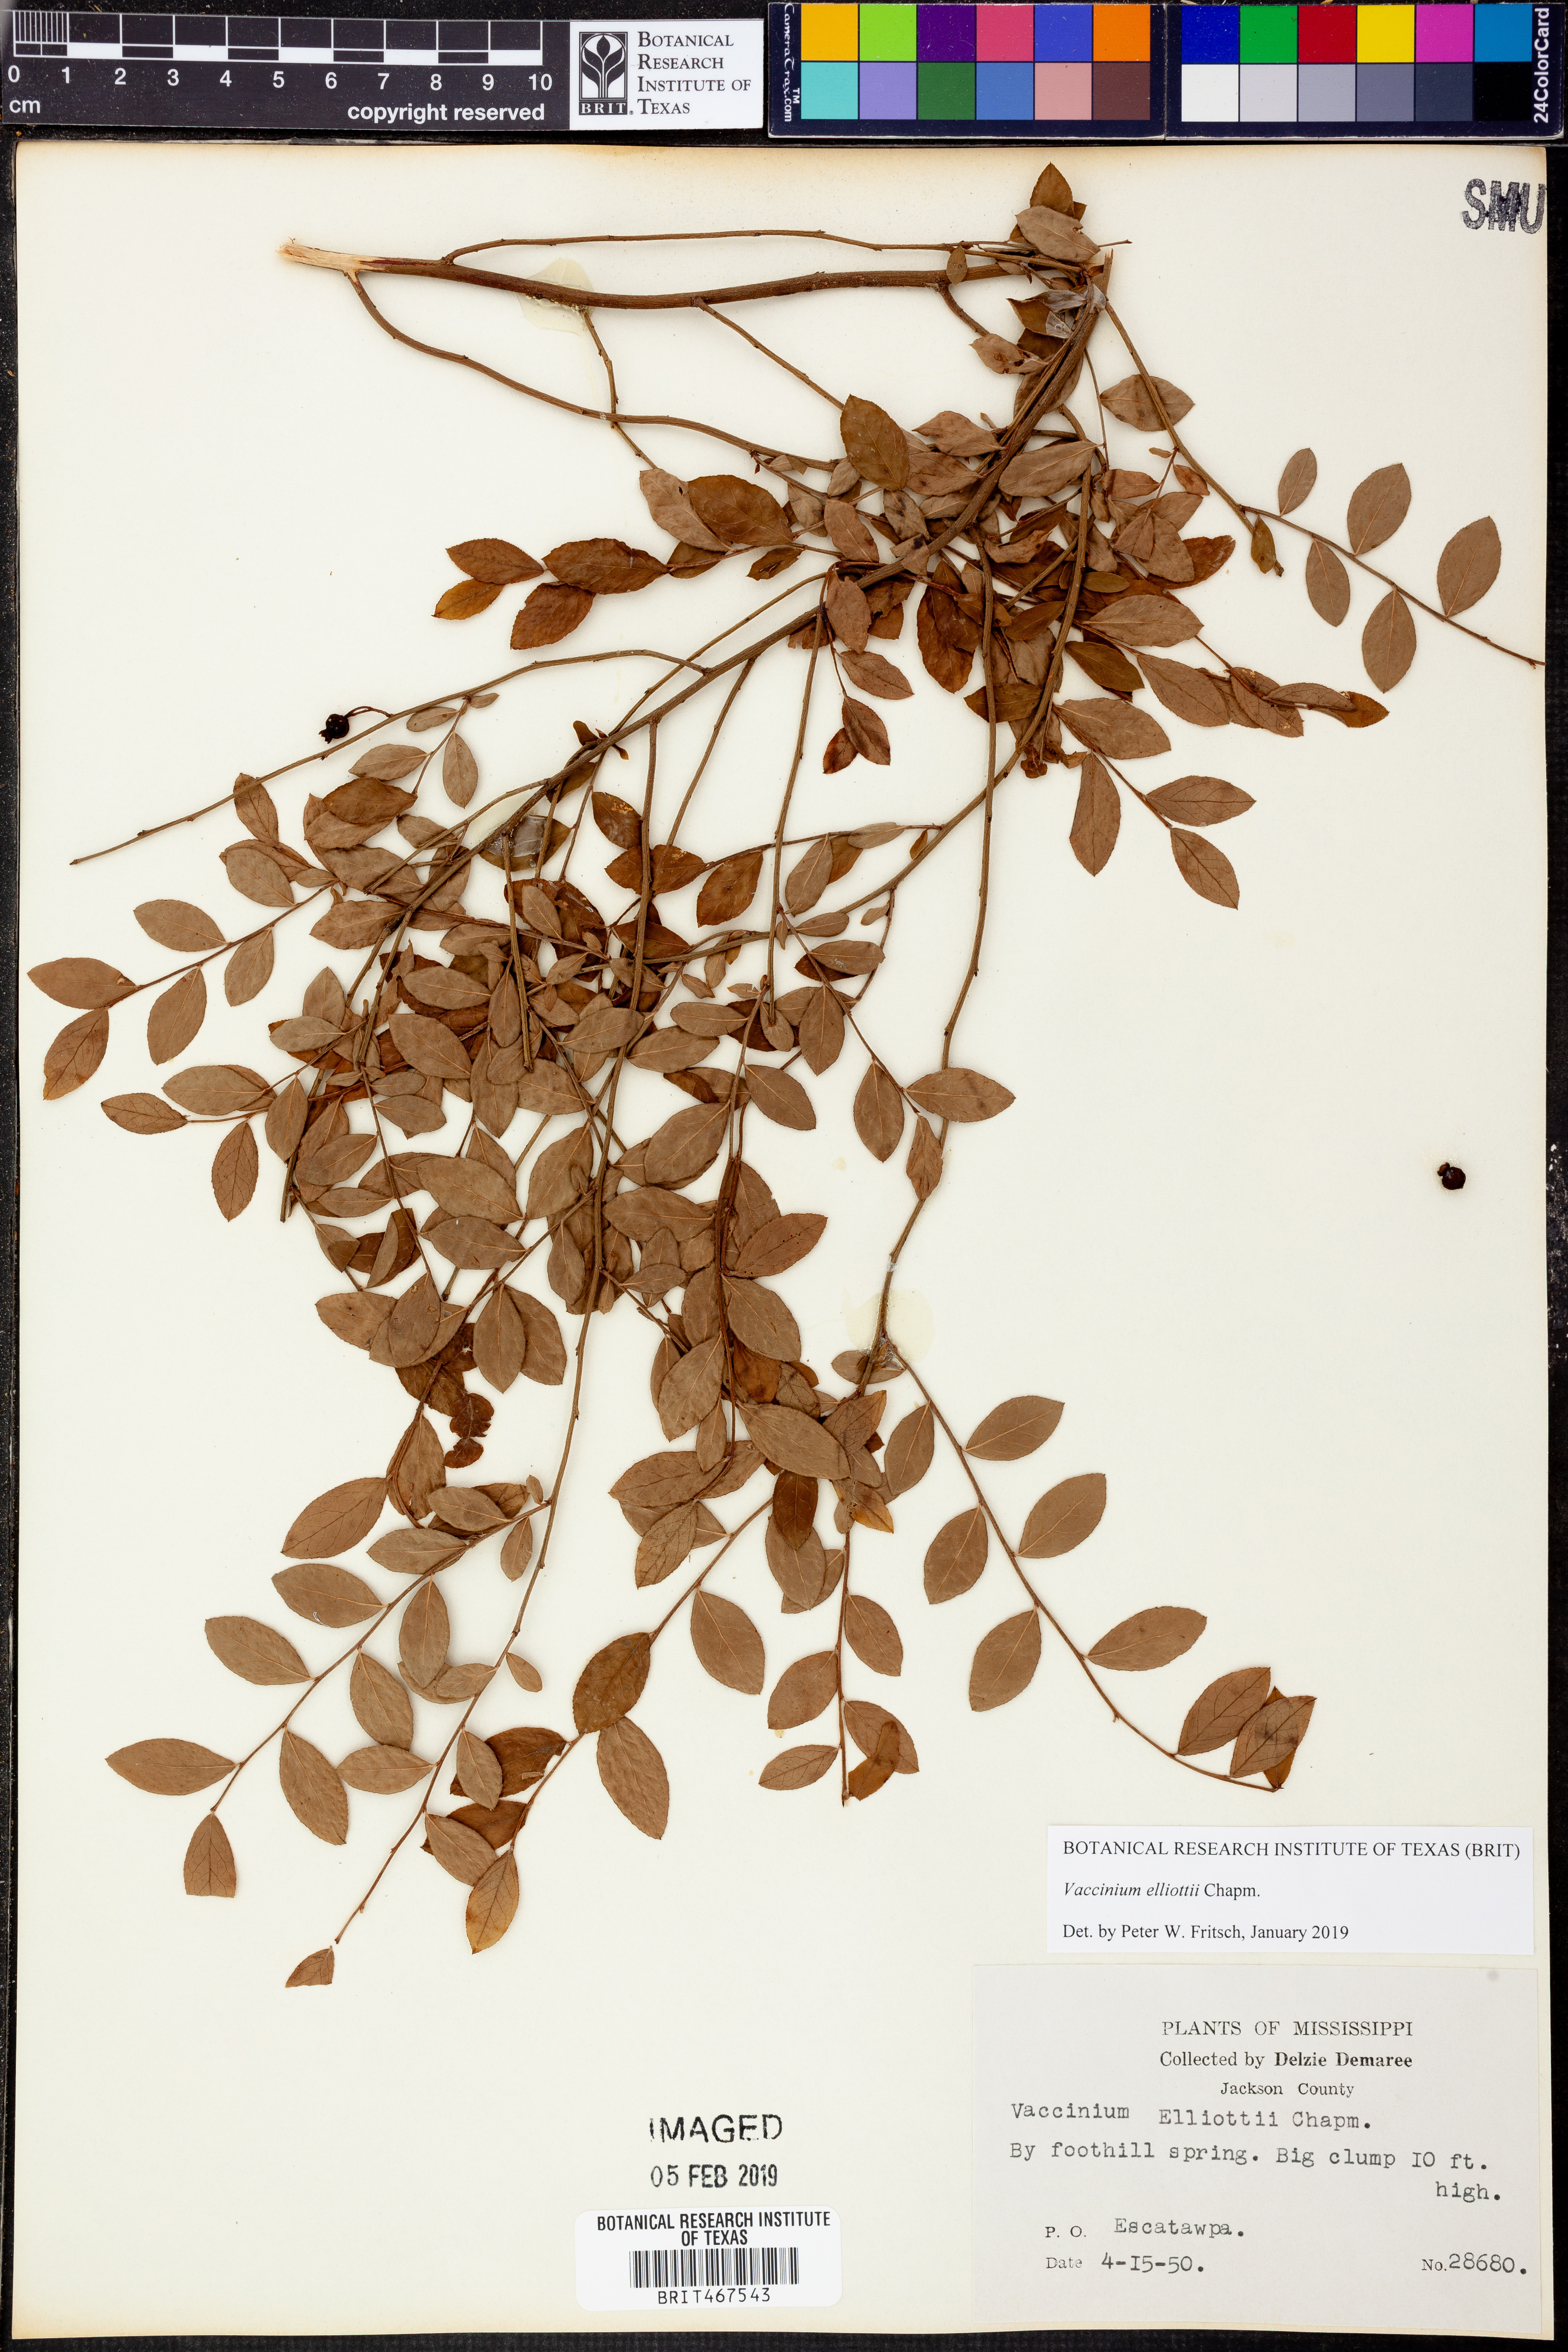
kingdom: Plantae
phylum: Tracheophyta
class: Magnoliopsida
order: Ericales
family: Ericaceae
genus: Vaccinium
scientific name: Vaccinium corymbosum
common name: Blueberry
